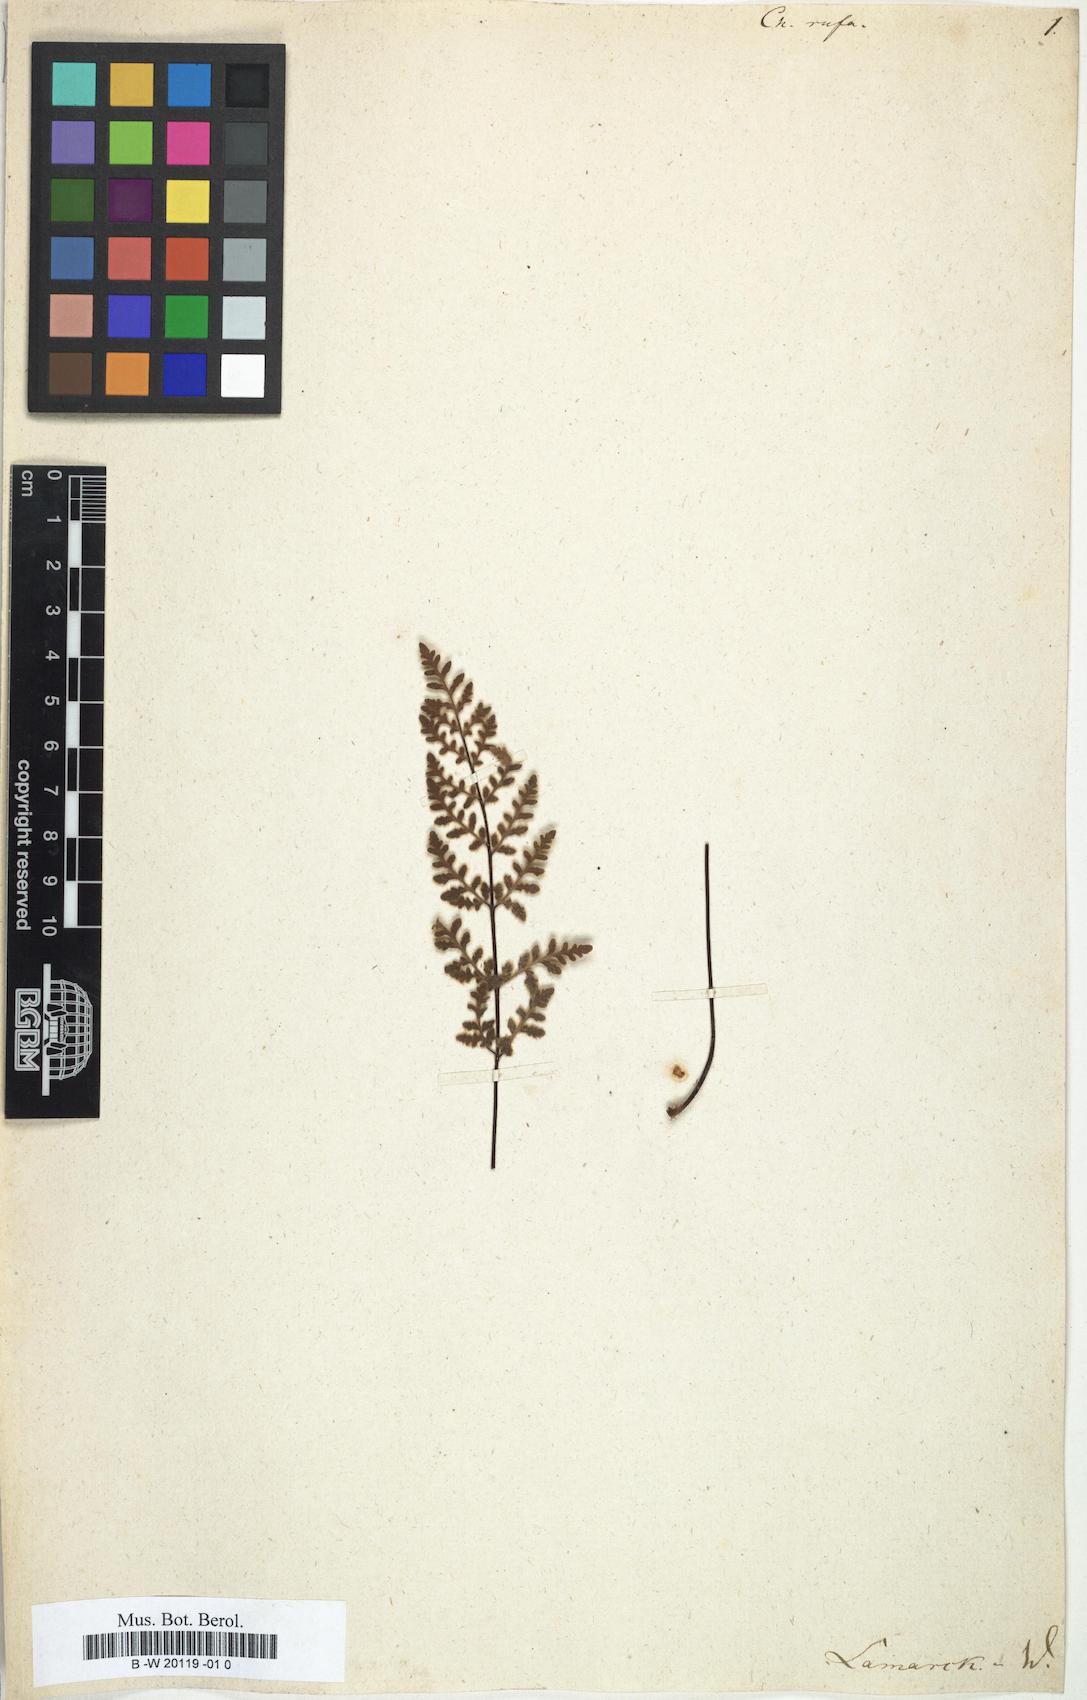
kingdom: Plantae
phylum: Tracheophyta
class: Polypodiopsida
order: Polypodiales
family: Pteridaceae
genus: Aleuritopteris
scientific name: Aleuritopteris rufa
